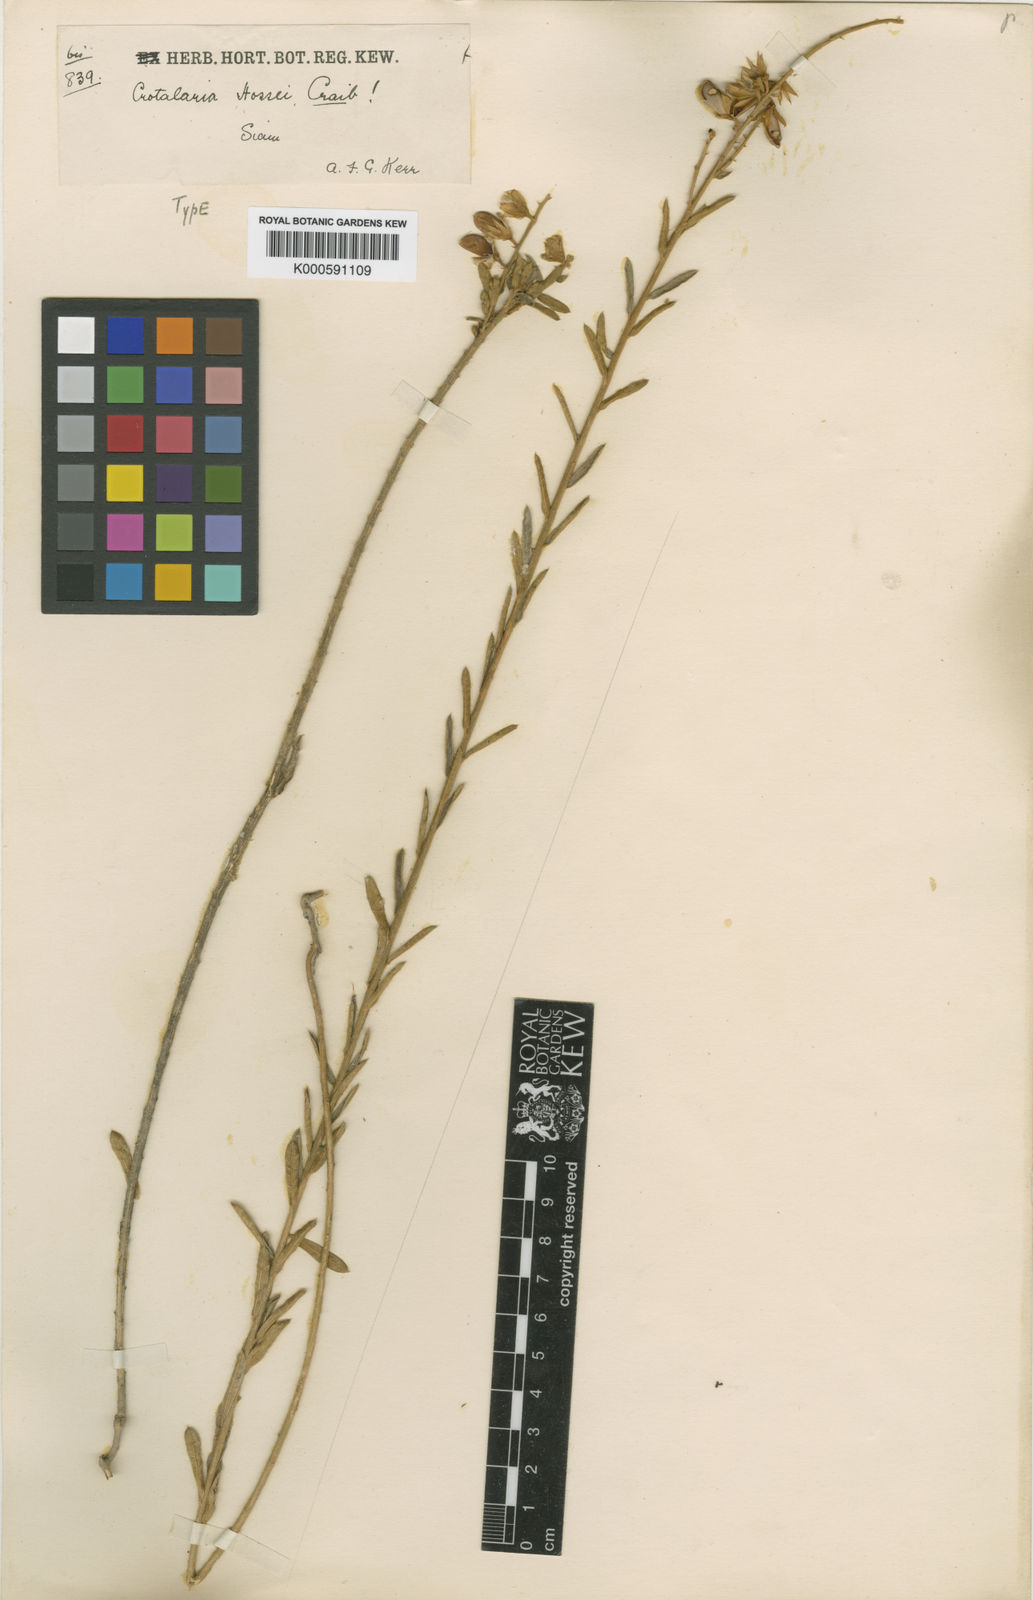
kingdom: Plantae
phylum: Tracheophyta
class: Magnoliopsida
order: Fabales
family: Fabaceae
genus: Crotalaria
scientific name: Crotalaria albida
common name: Taiwan crotalaria
